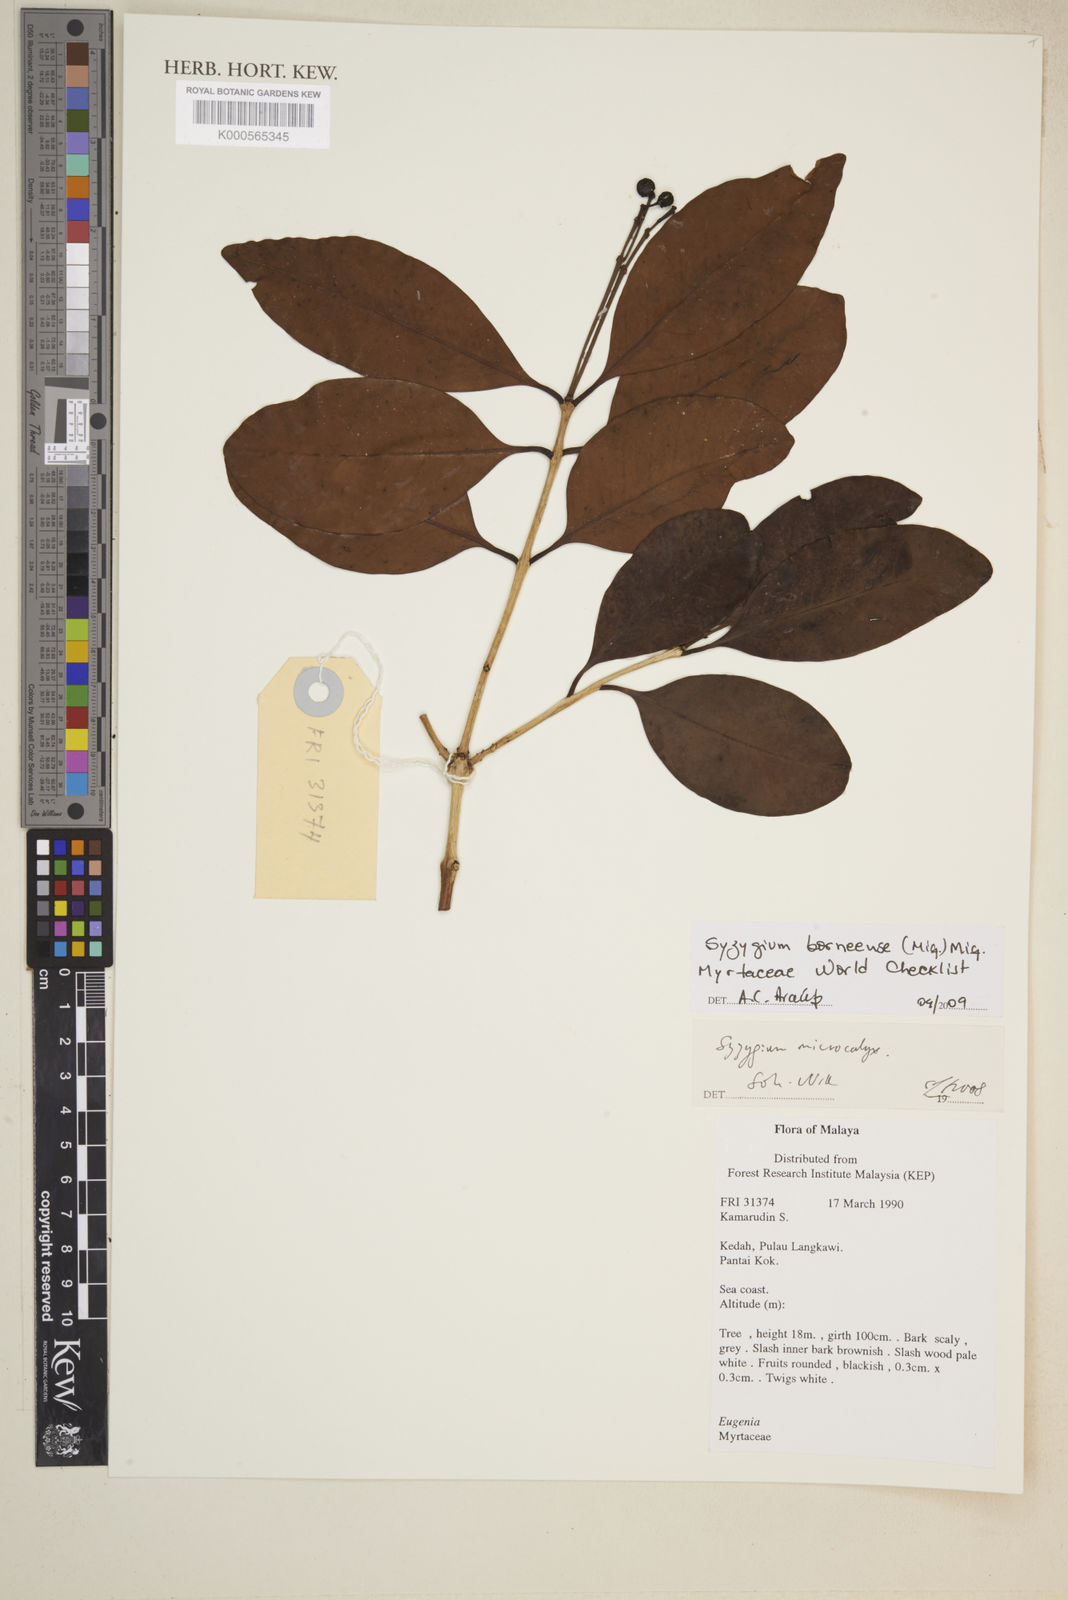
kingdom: Plantae
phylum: Tracheophyta
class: Magnoliopsida
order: Myrtales
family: Myrtaceae
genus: Syzygium
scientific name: Syzygium borneense
